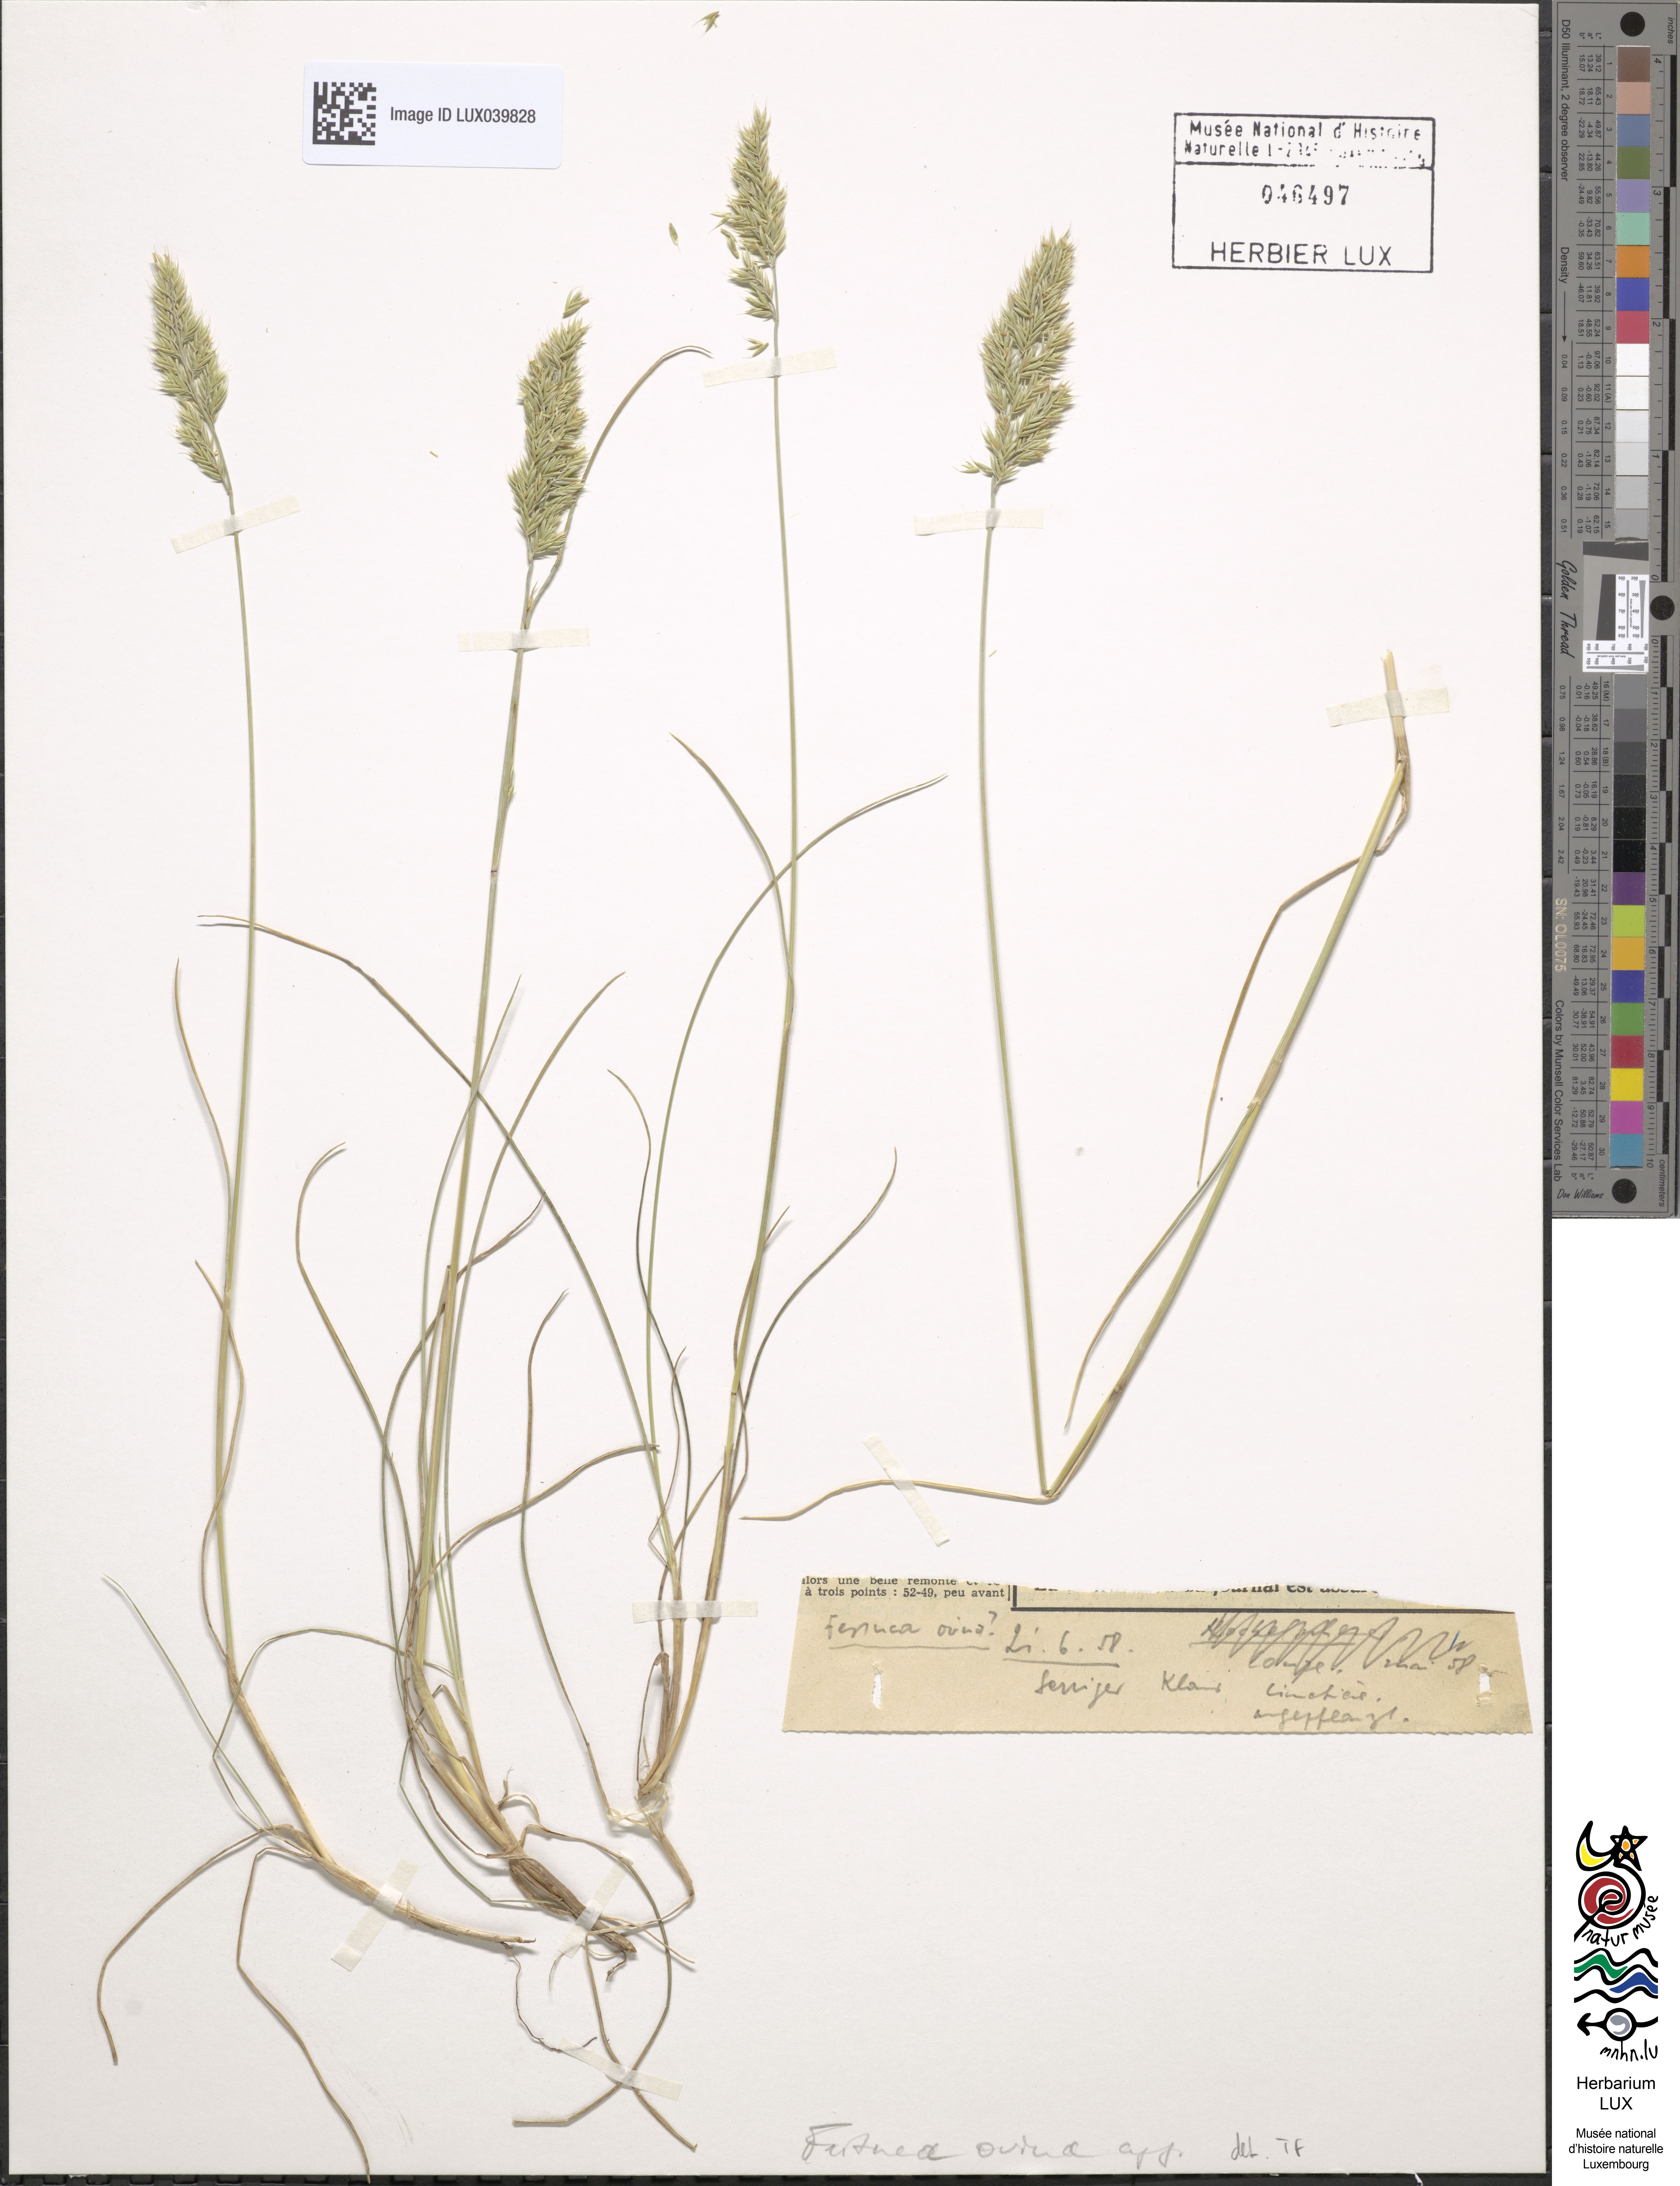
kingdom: Plantae
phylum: Tracheophyta
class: Liliopsida
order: Poales
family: Poaceae
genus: Festuca
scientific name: Festuca ovina
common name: Sheep fescue
